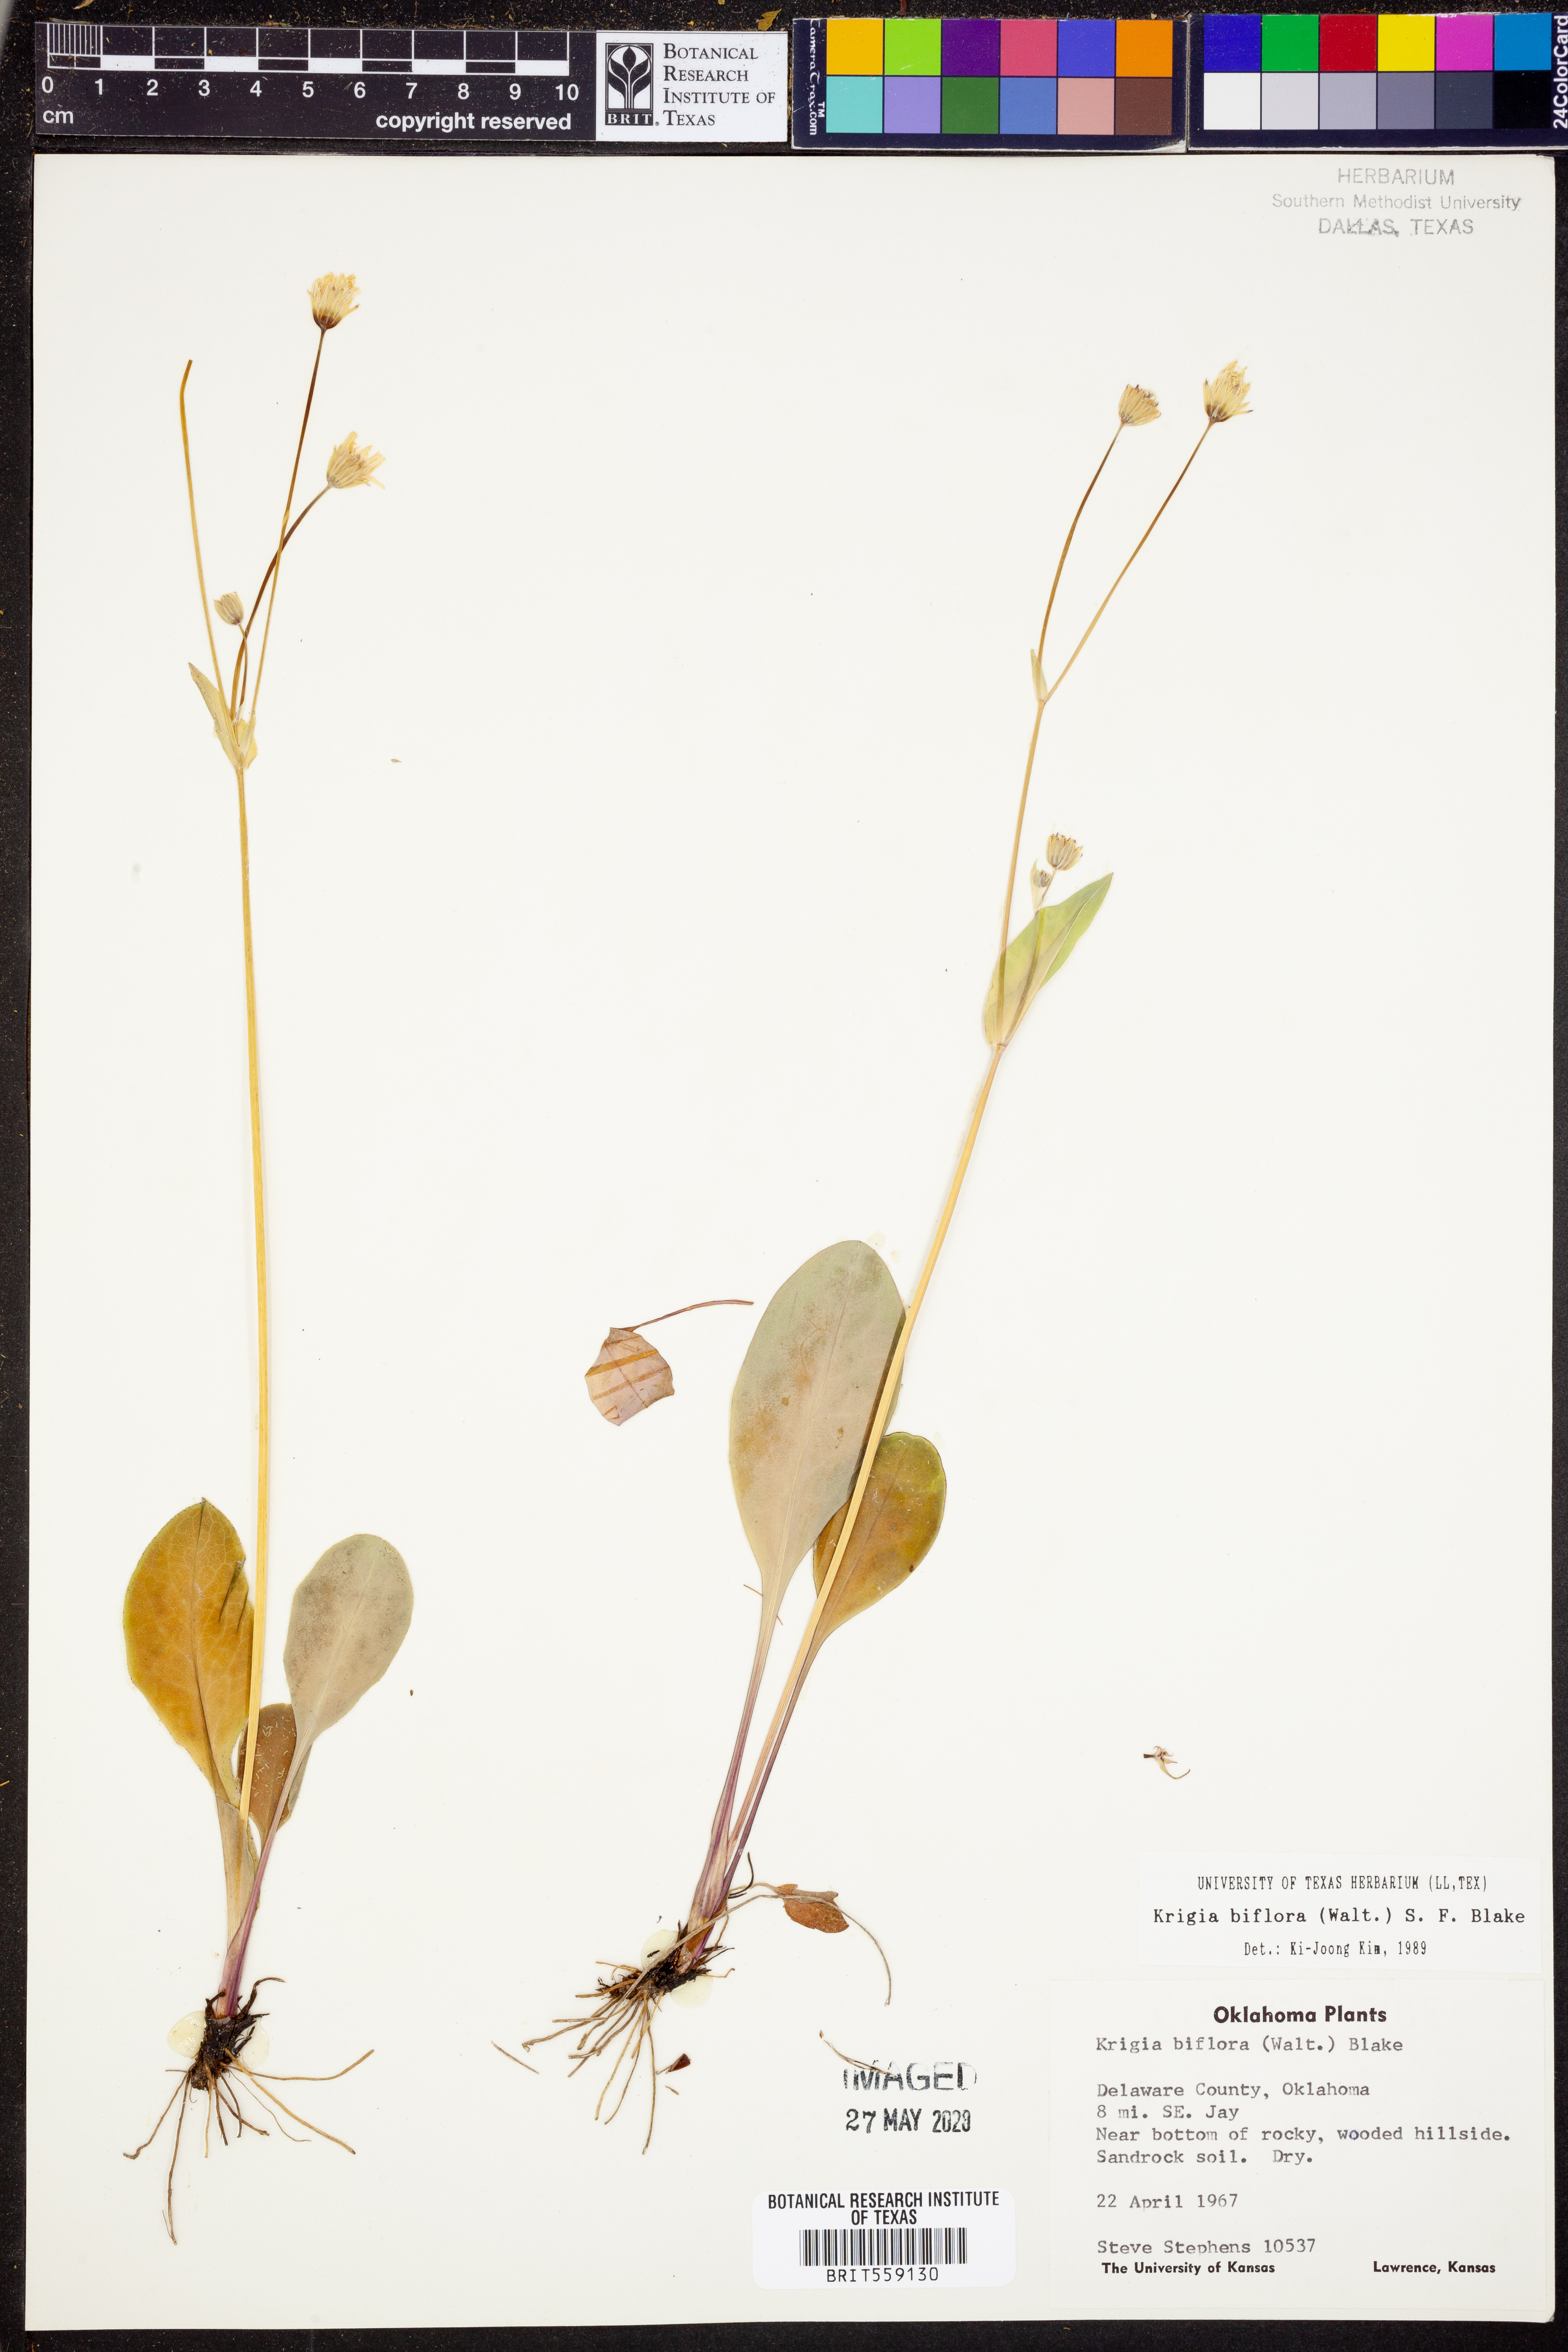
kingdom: Plantae
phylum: Tracheophyta
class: Magnoliopsida
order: Asterales
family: Asteraceae
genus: Krigia
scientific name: Krigia biflora
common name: Orange dwarf-dandelion
